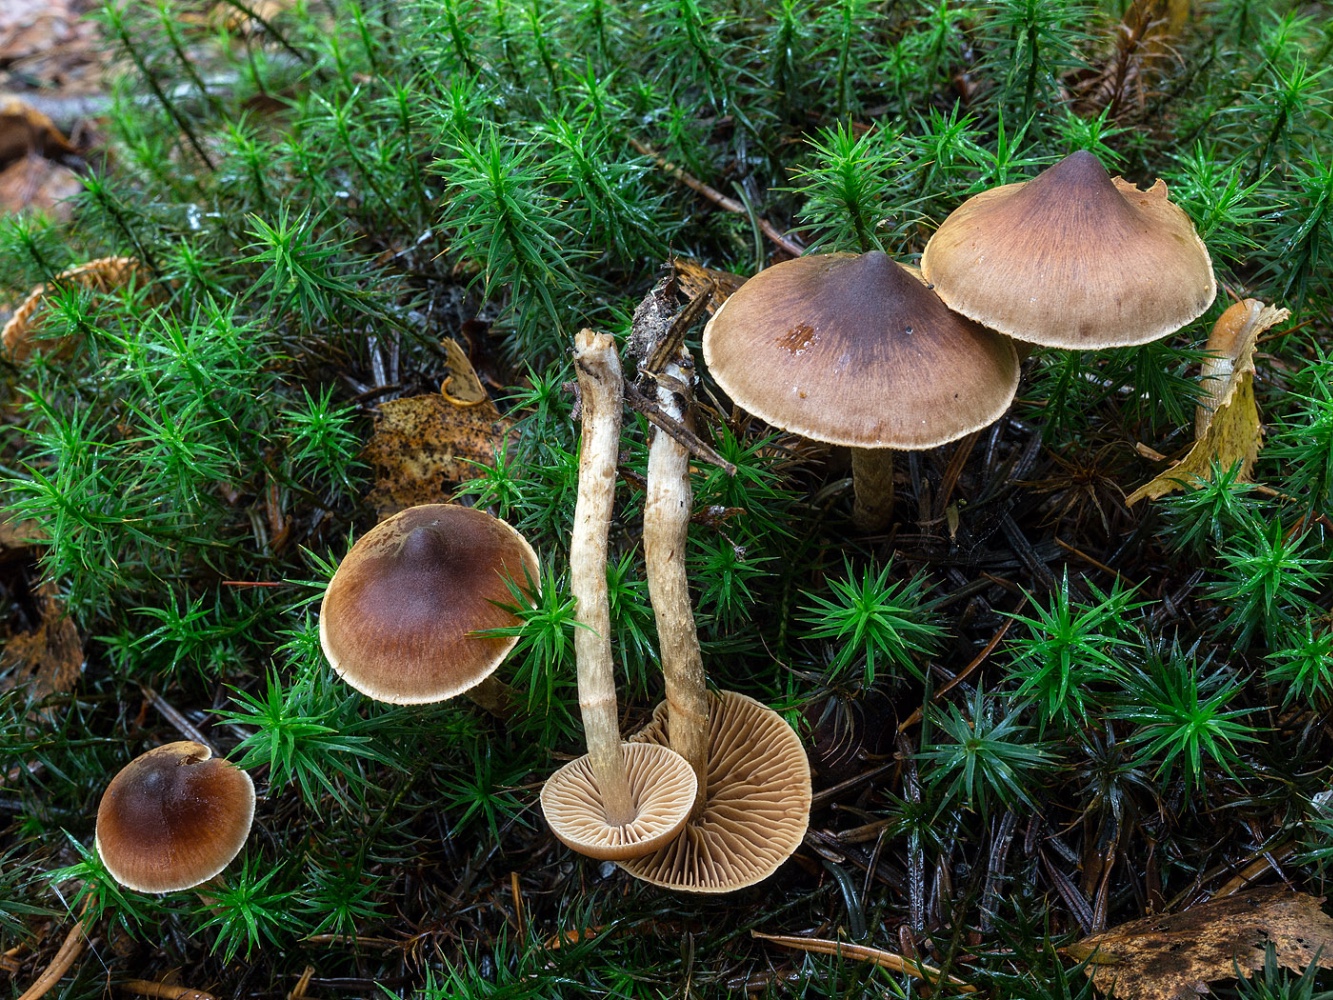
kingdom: Fungi
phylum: Basidiomycota
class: Agaricomycetes
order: Agaricales
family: Cortinariaceae
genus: Cortinarius
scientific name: Cortinarius
